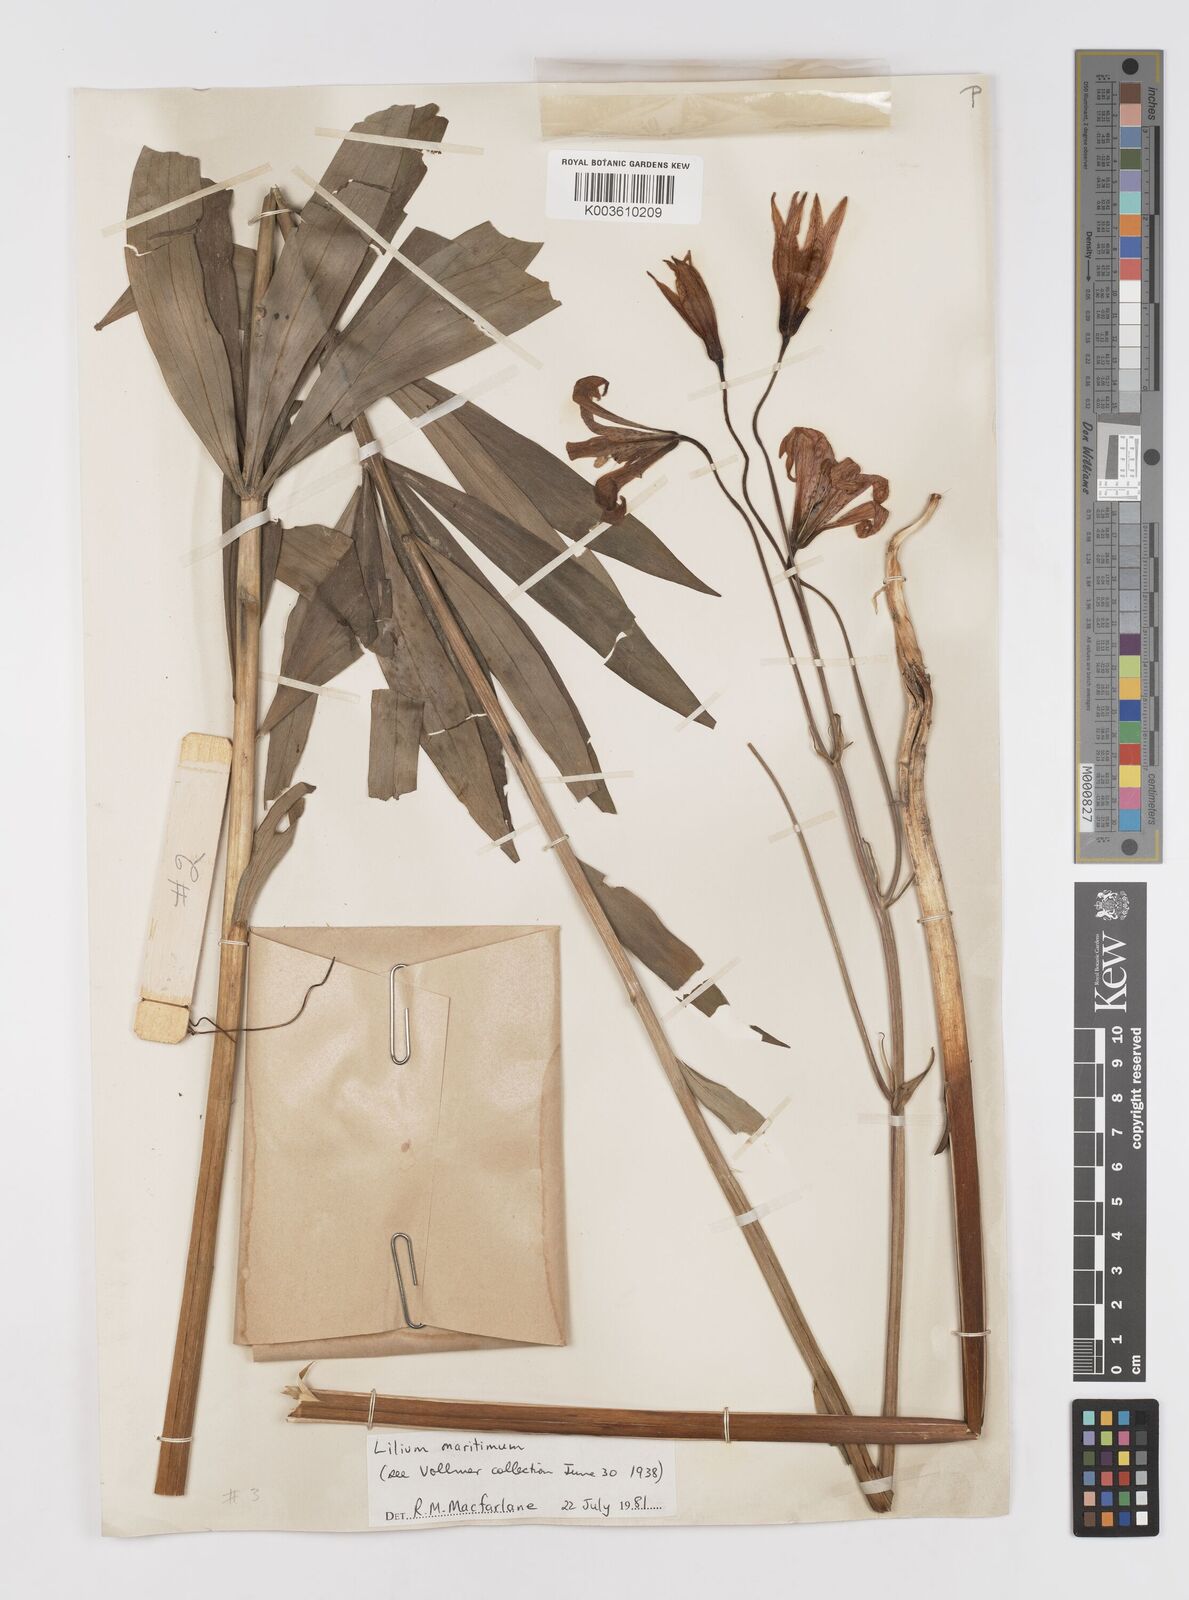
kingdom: Plantae
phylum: Tracheophyta
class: Liliopsida
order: Liliales
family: Liliaceae
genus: Lilium
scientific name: Lilium maritimum
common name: Coastal lily
